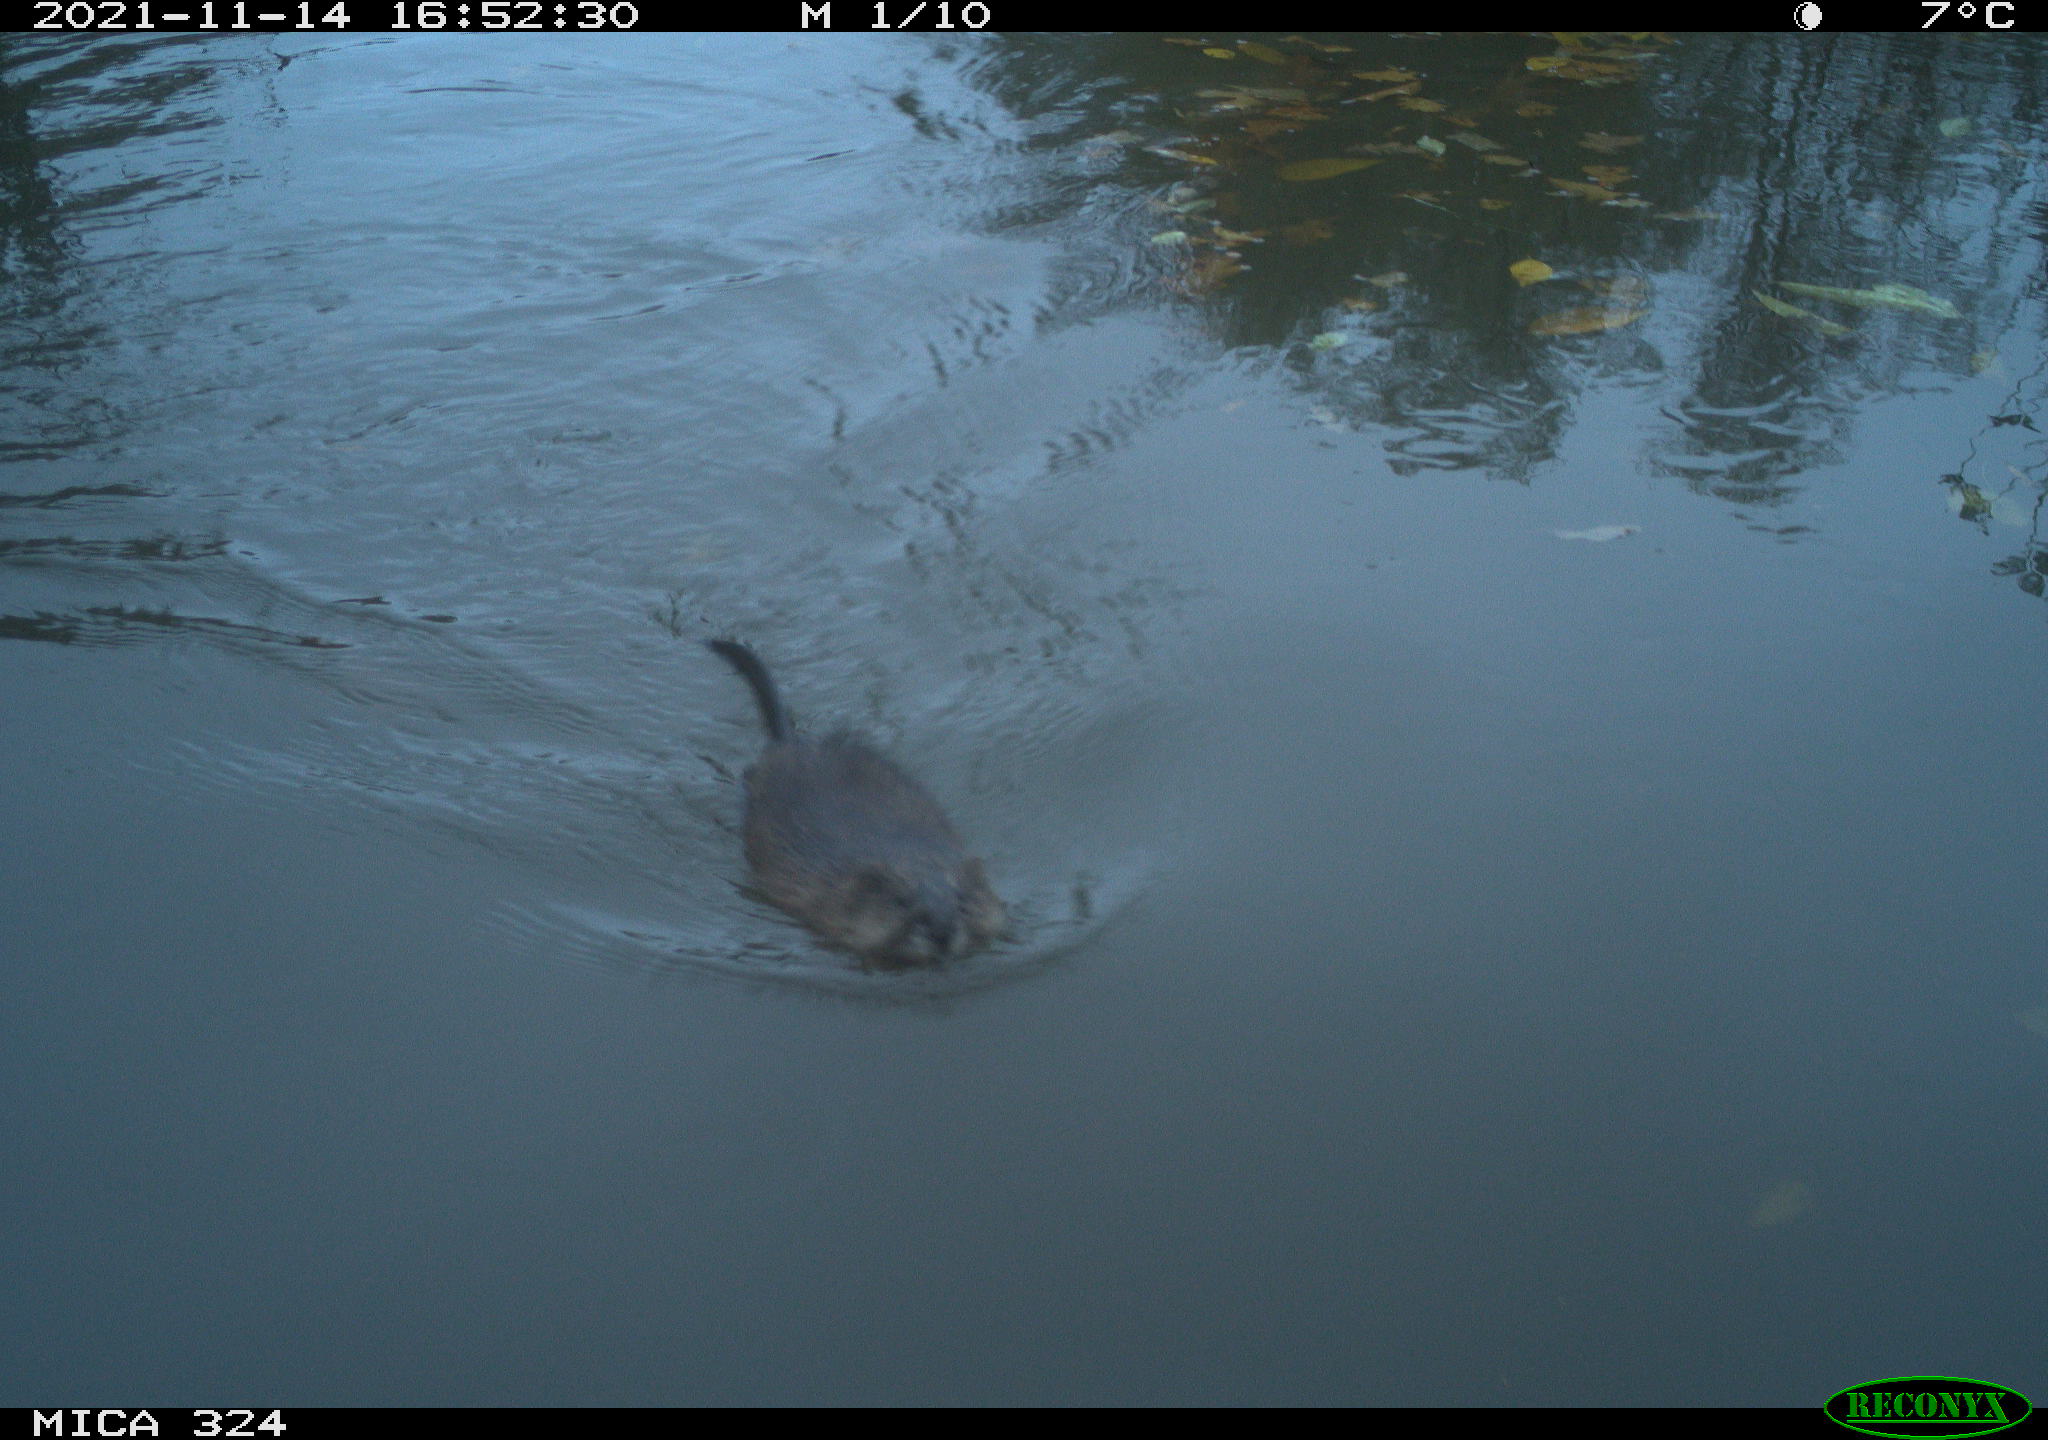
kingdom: Animalia
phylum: Chordata
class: Mammalia
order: Rodentia
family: Cricetidae
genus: Ondatra
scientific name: Ondatra zibethicus
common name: Muskrat
